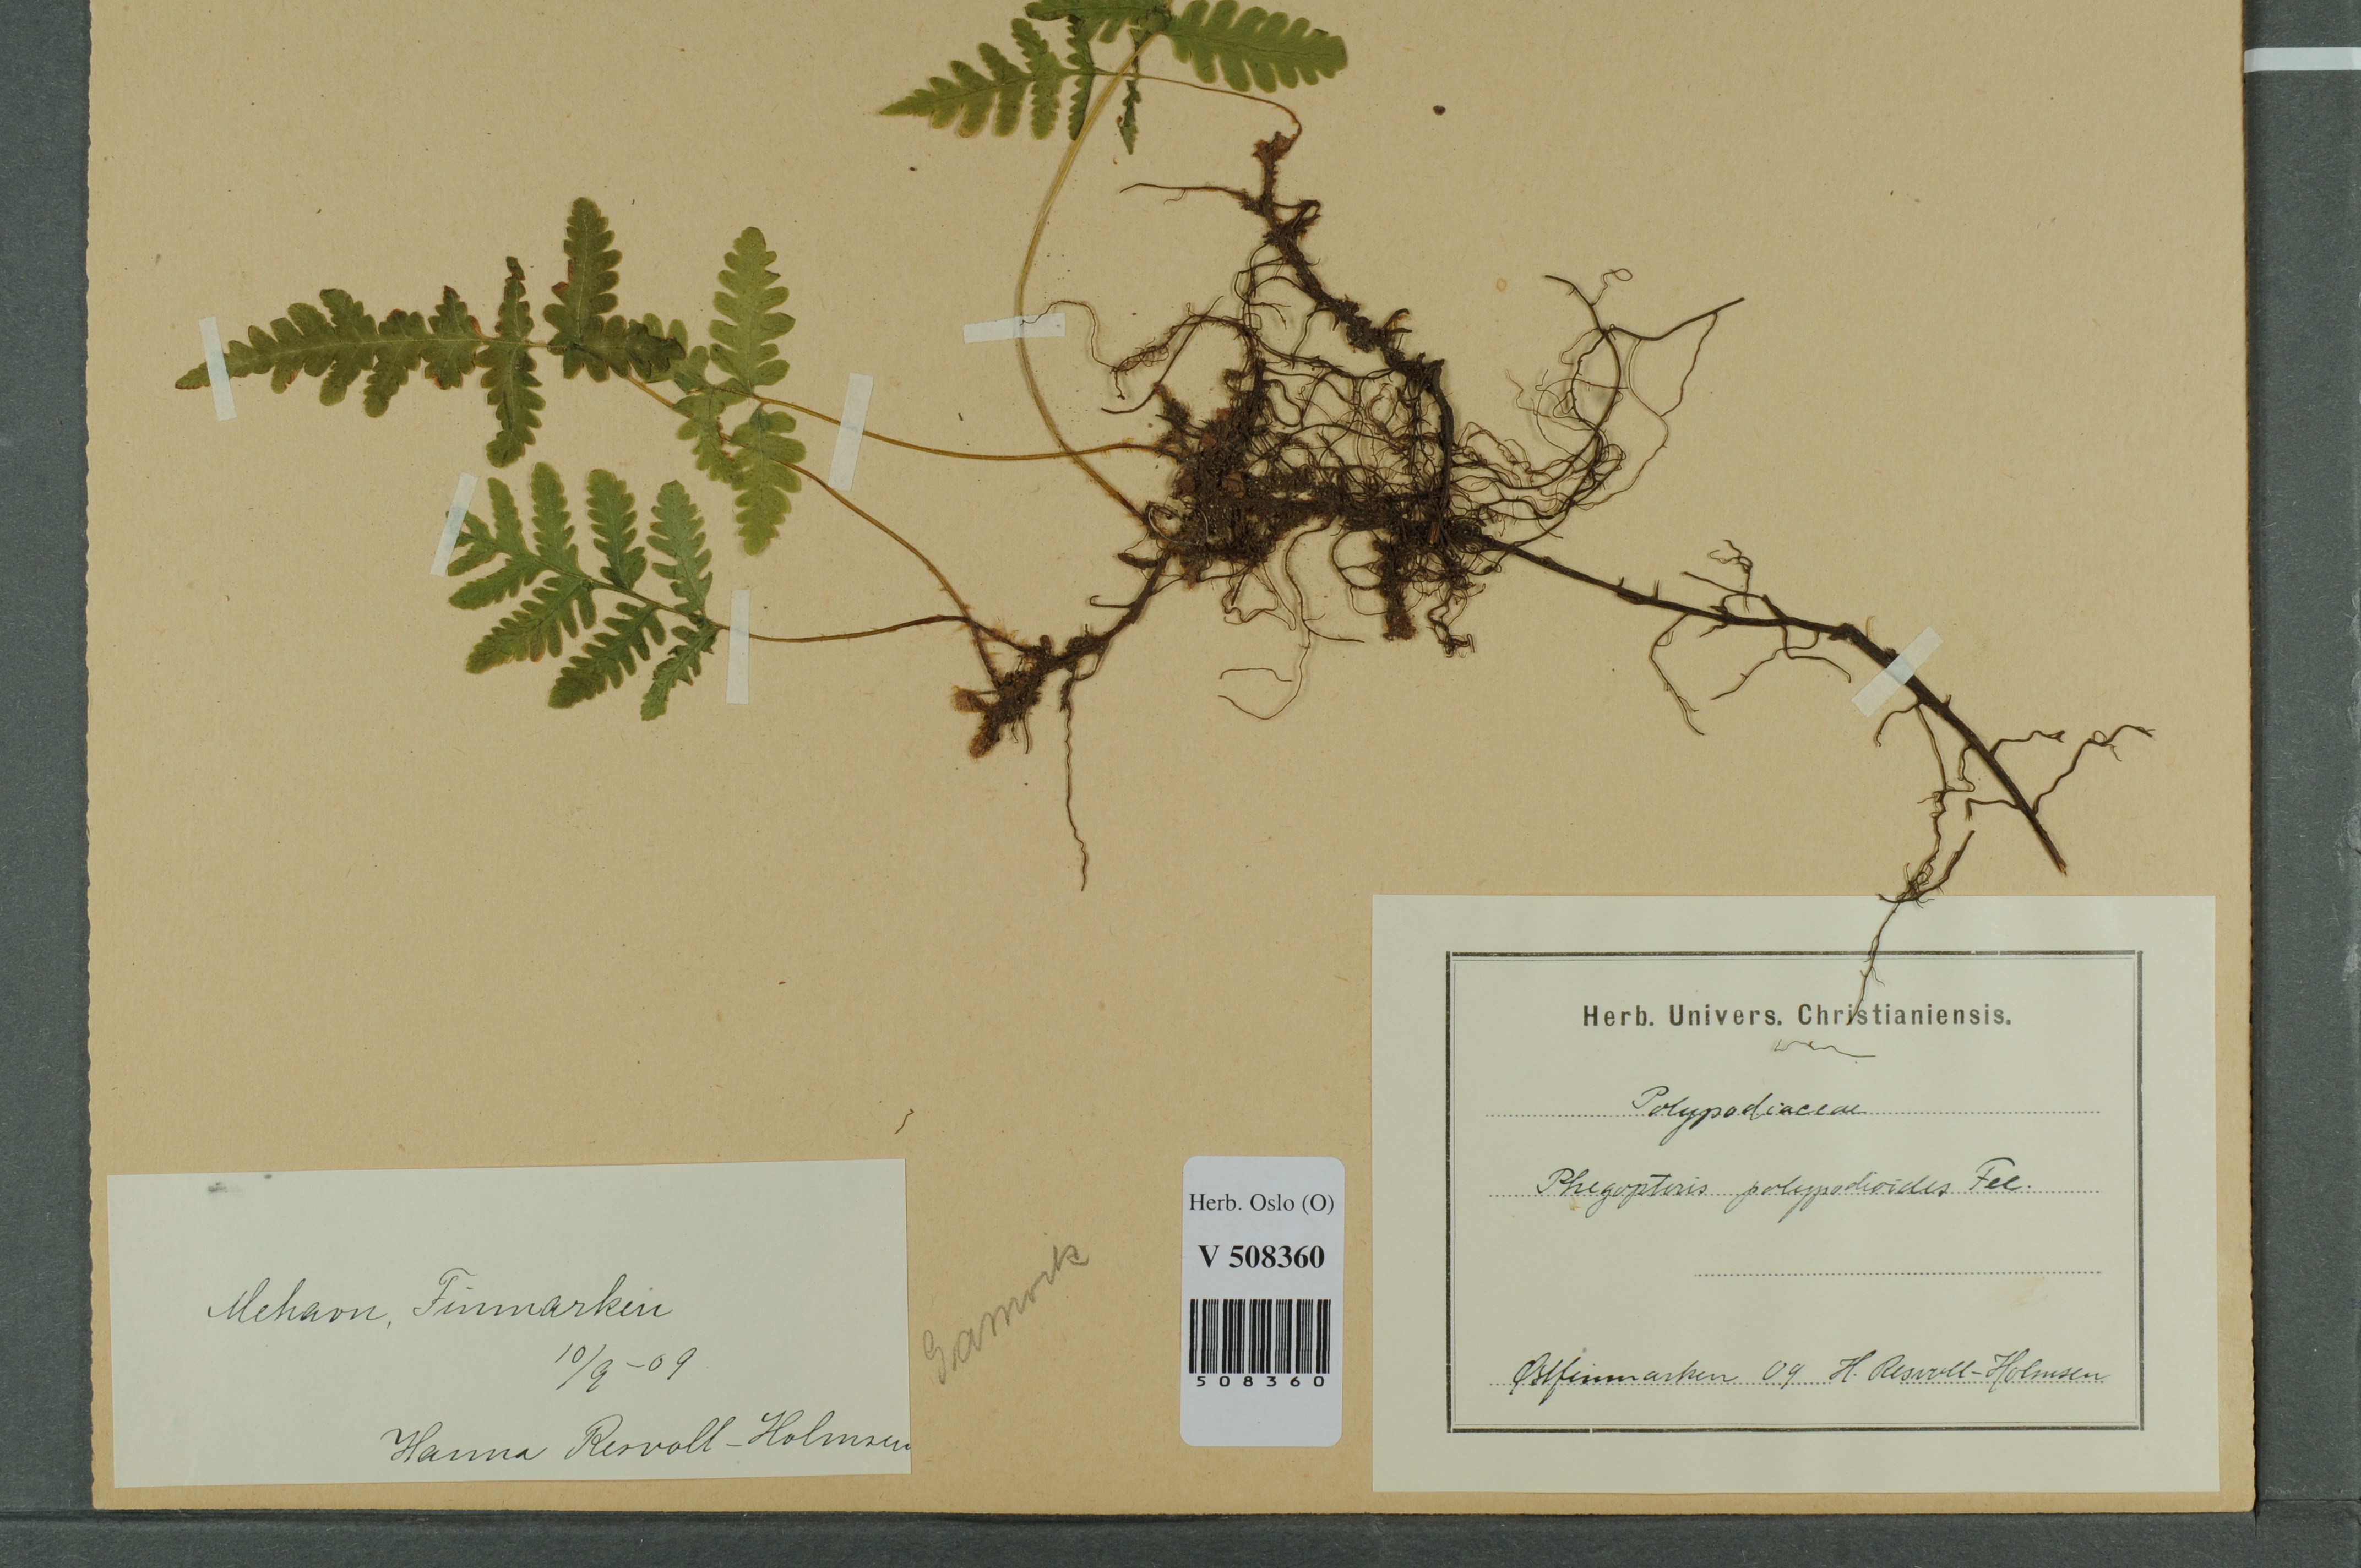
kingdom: Plantae
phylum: Tracheophyta
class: Polypodiopsida
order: Polypodiales
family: Thelypteridaceae
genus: Phegopteris
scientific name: Phegopteris connectilis
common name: Beech fern
